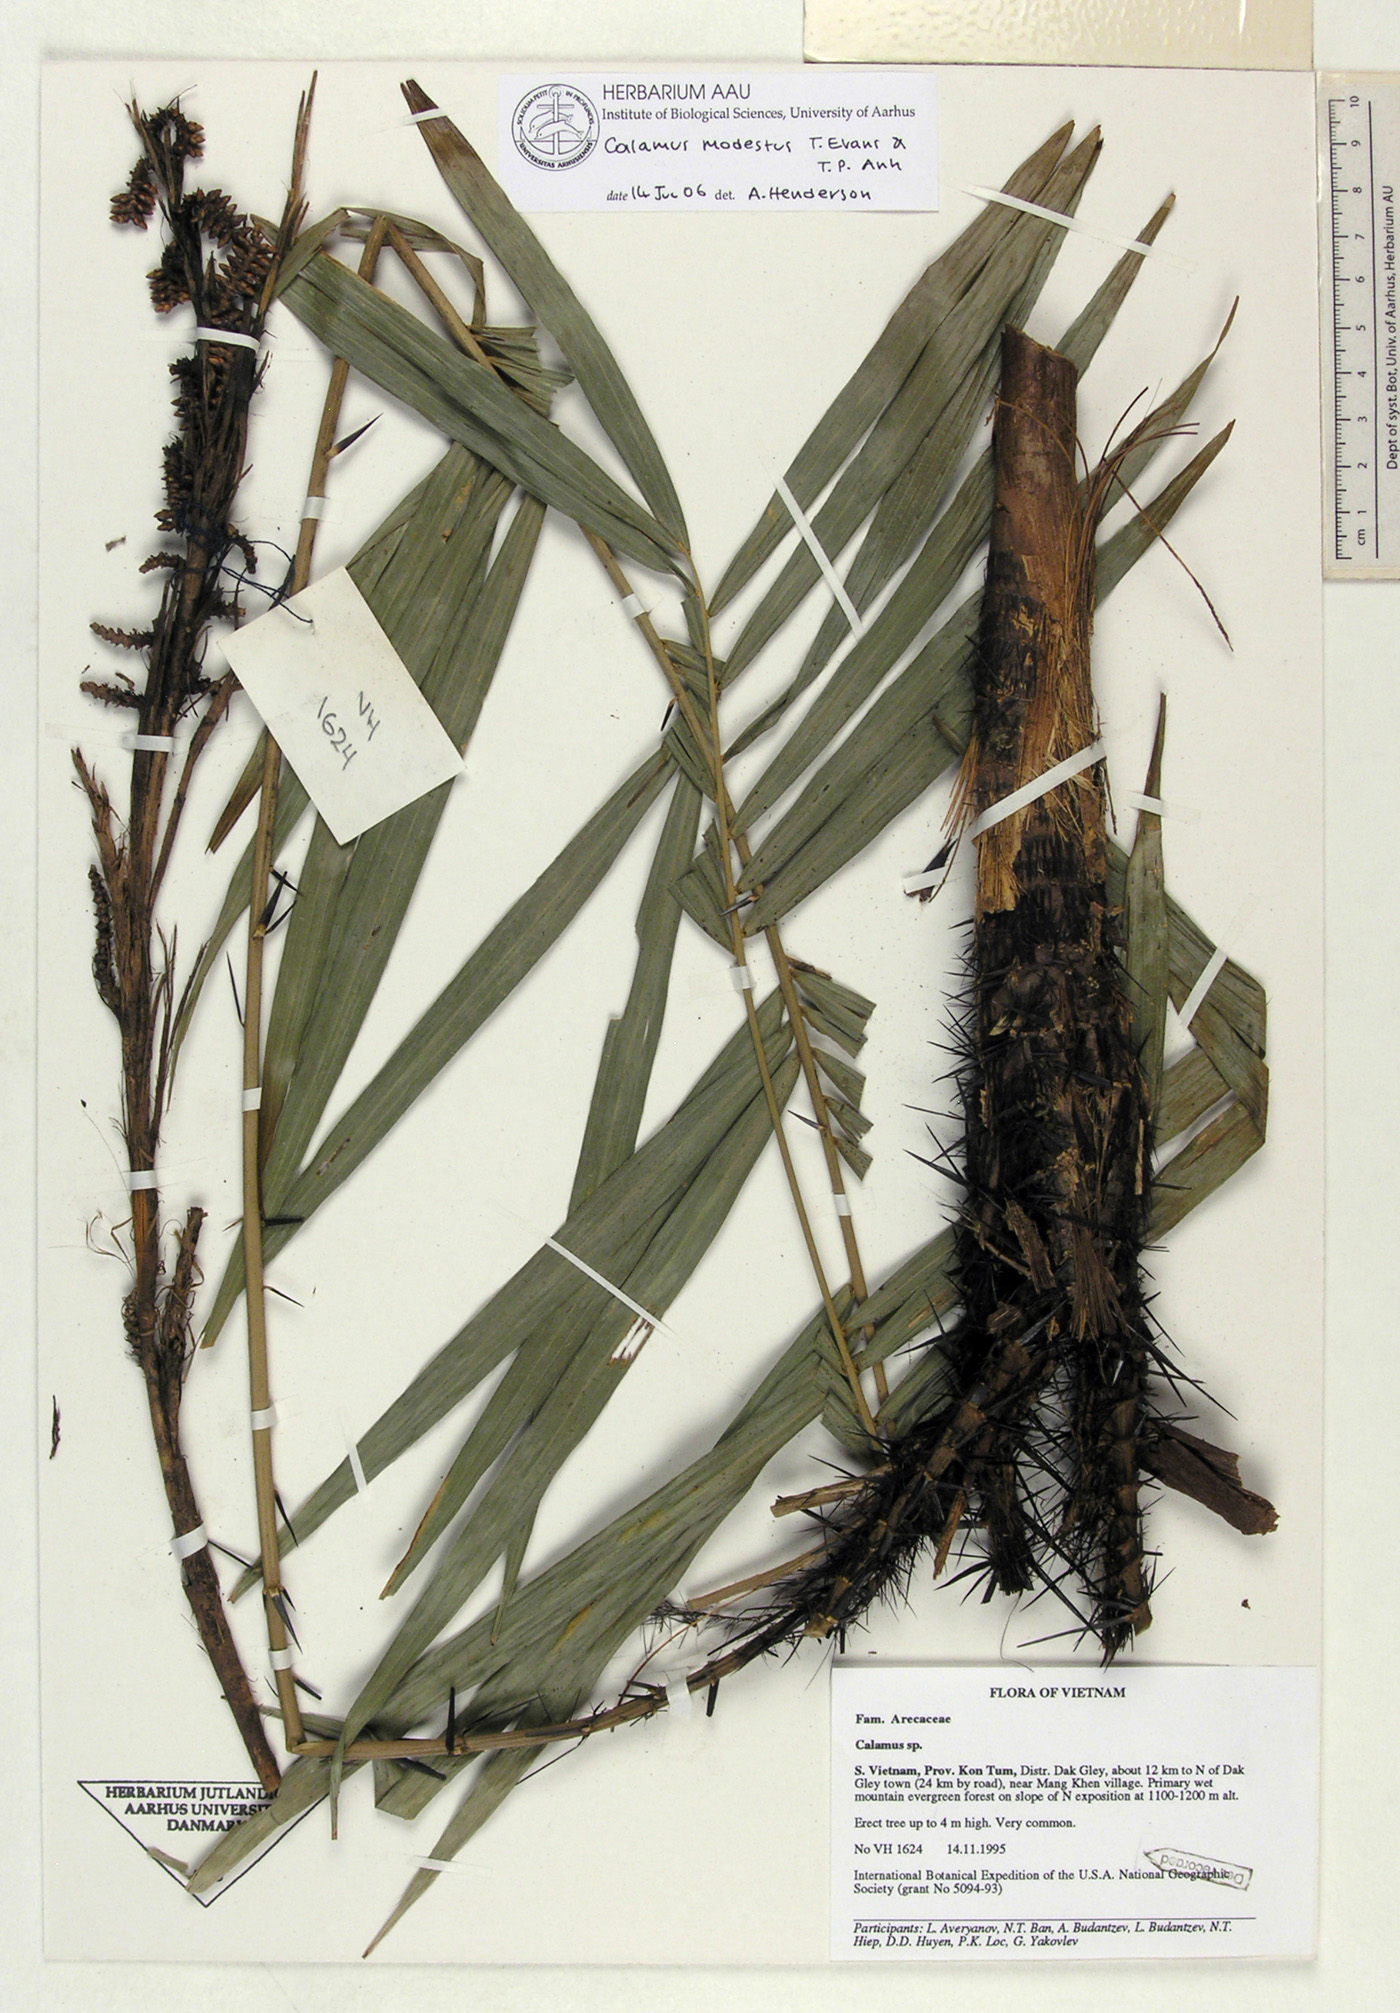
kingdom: Plantae
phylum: Tracheophyta
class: Liliopsida
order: Arecales
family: Arecaceae
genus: Calamus
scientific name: Calamus modestus
